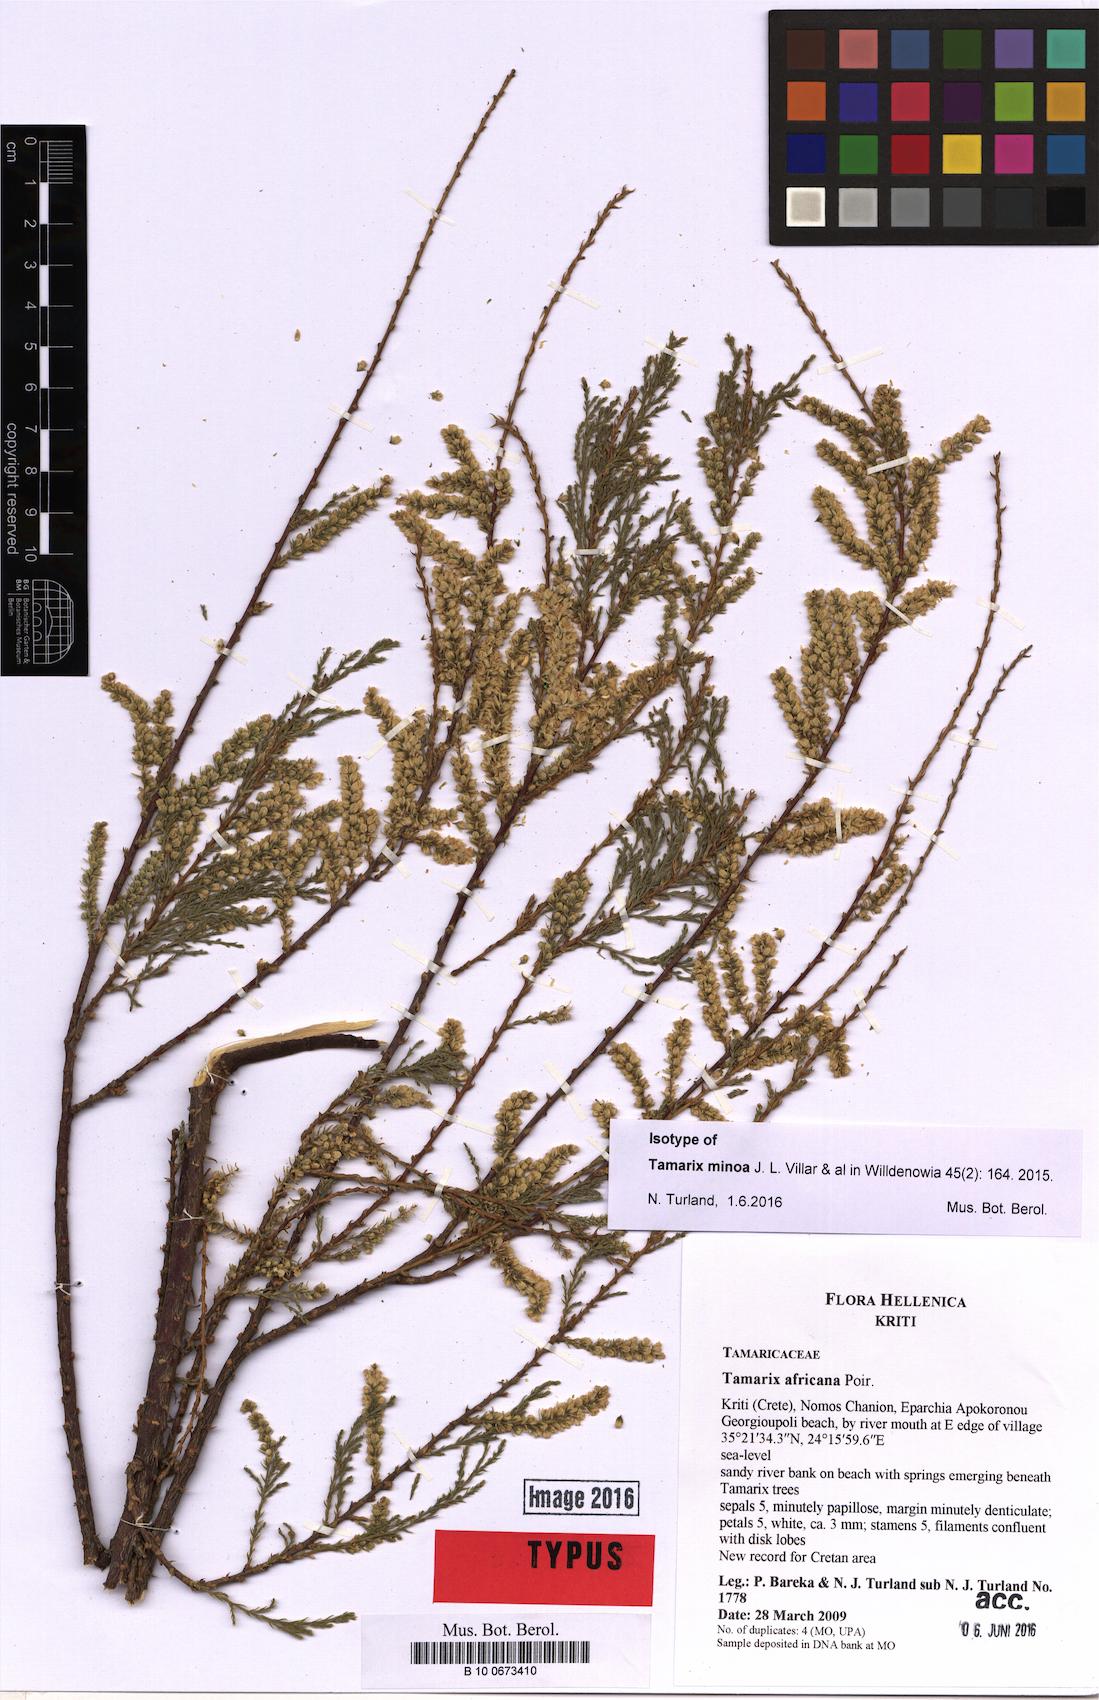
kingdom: Plantae
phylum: Tracheophyta
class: Magnoliopsida
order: Caryophyllales
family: Tamaricaceae
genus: Tamarix
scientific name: Tamarix minoa
